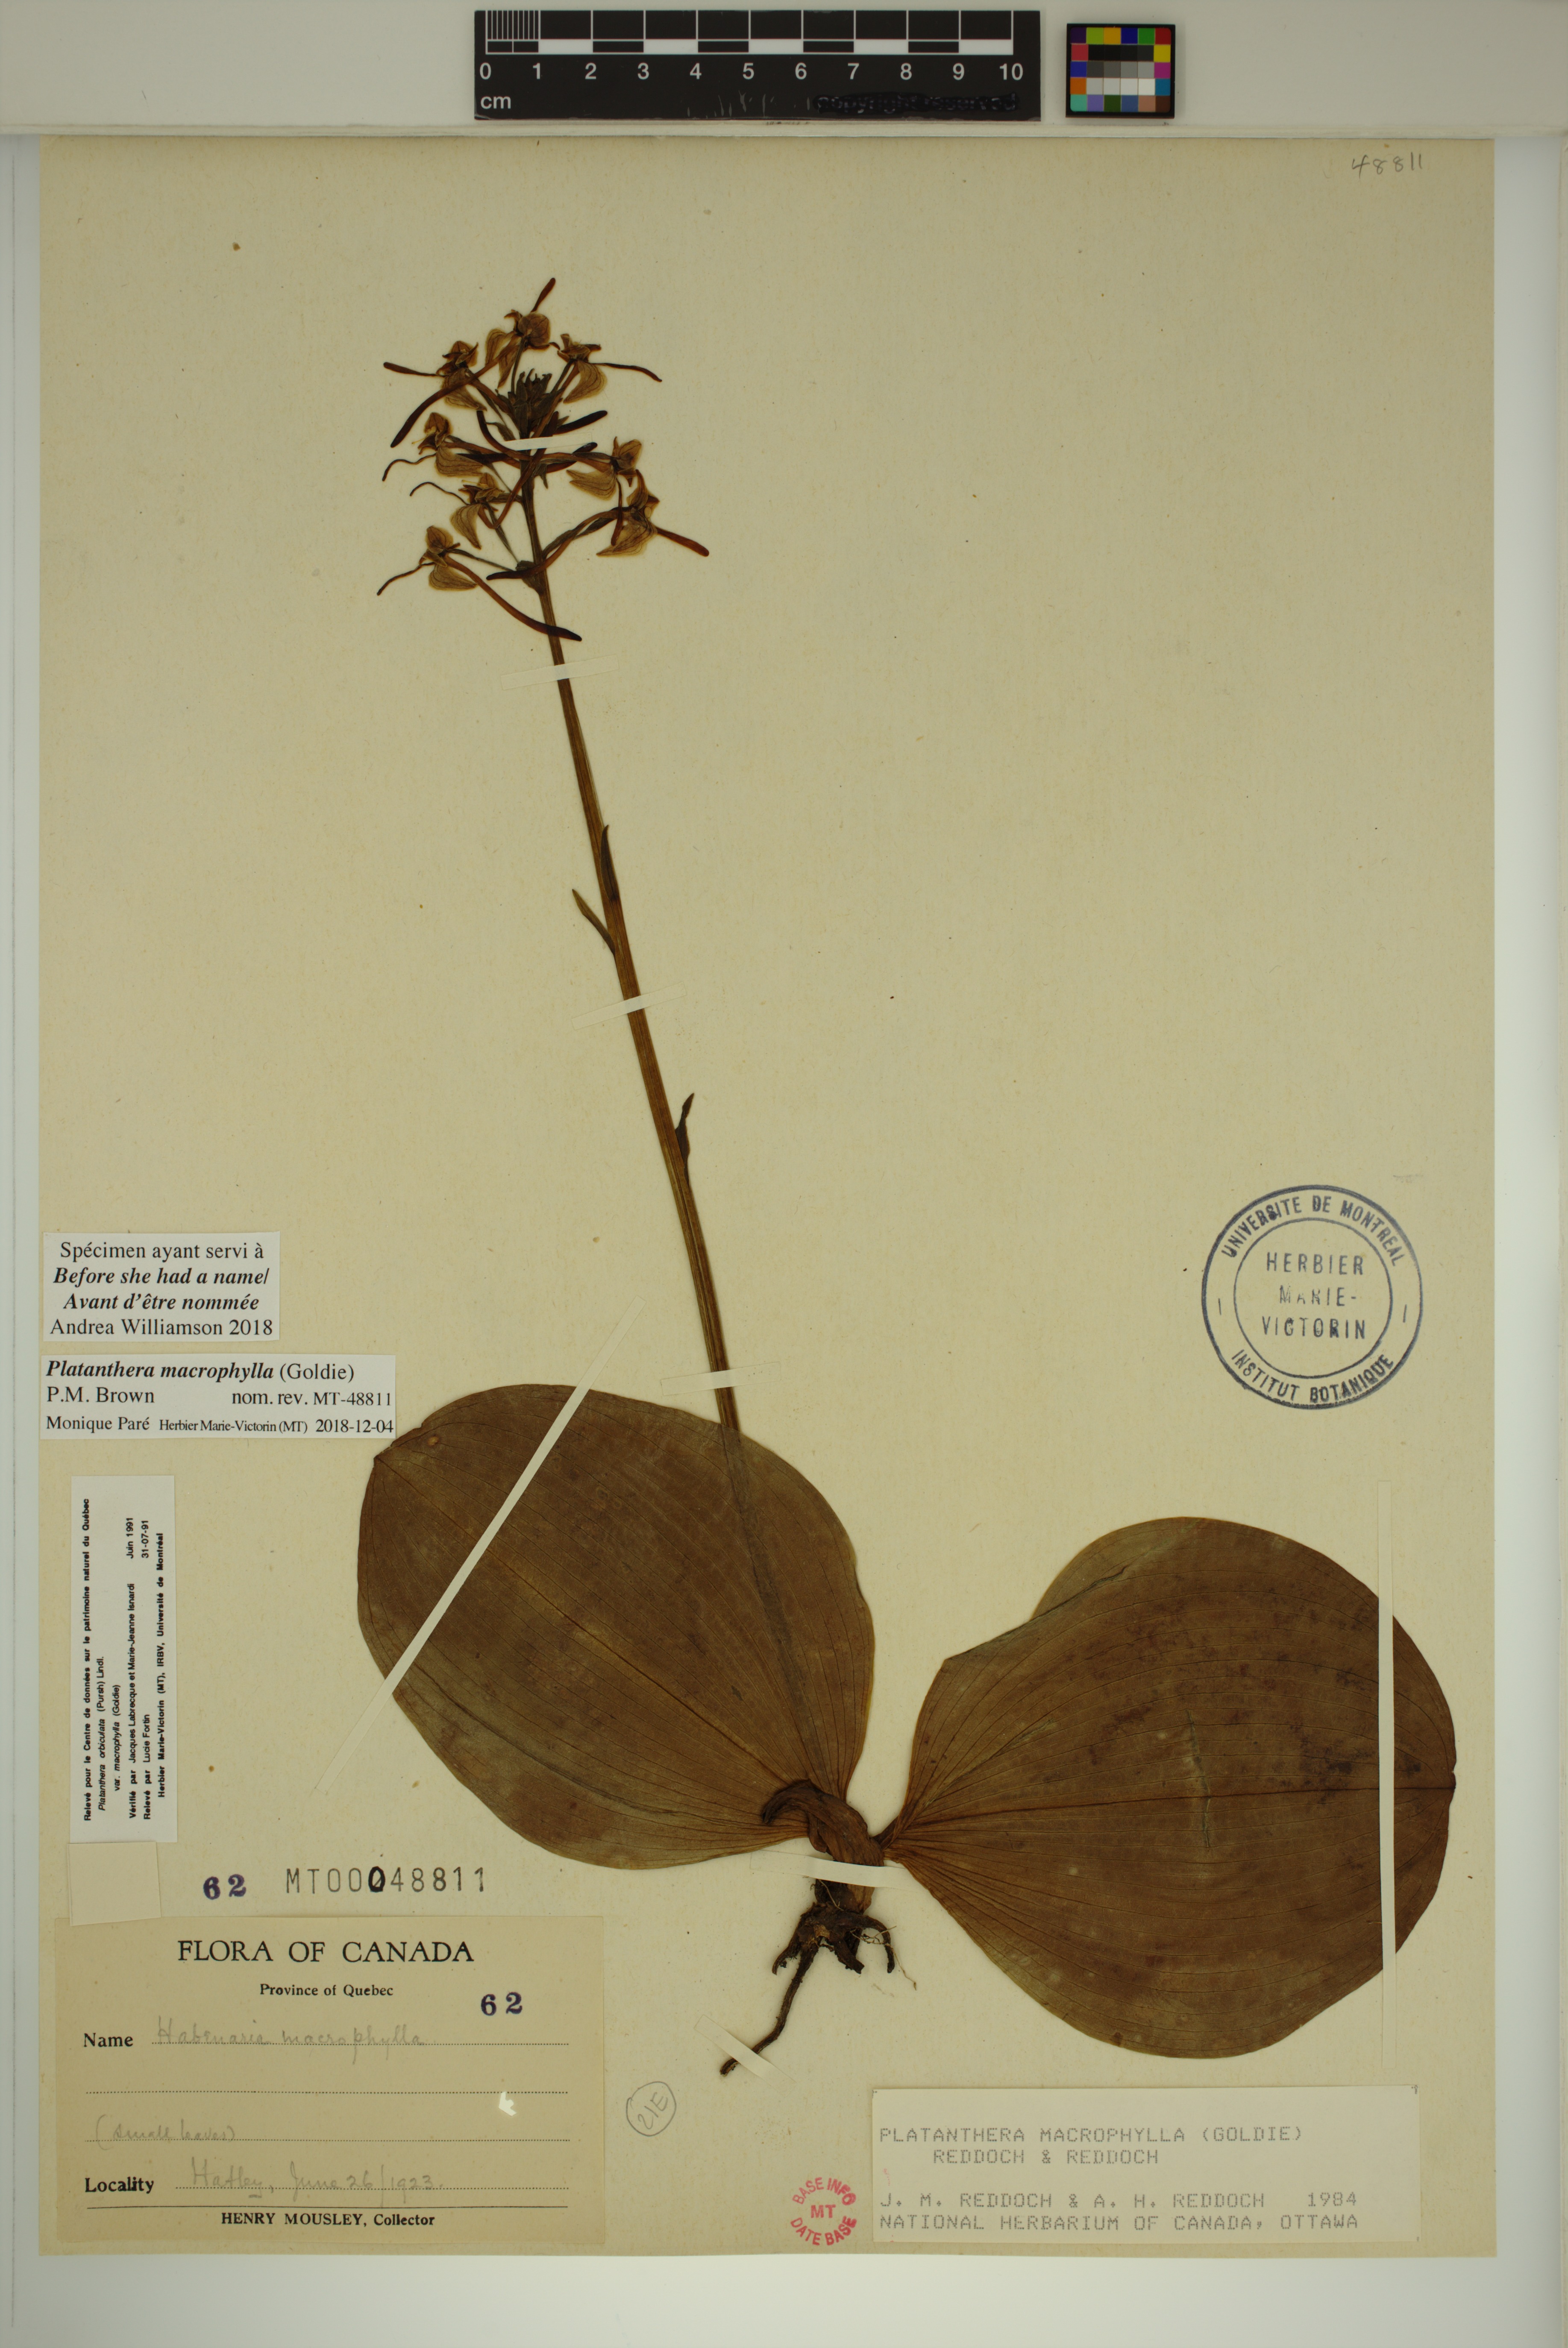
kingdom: Plantae
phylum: Tracheophyta
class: Liliopsida
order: Asparagales
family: Orchidaceae
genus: Platanthera
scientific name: Platanthera orbiculata
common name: Large round-leaved orchid
